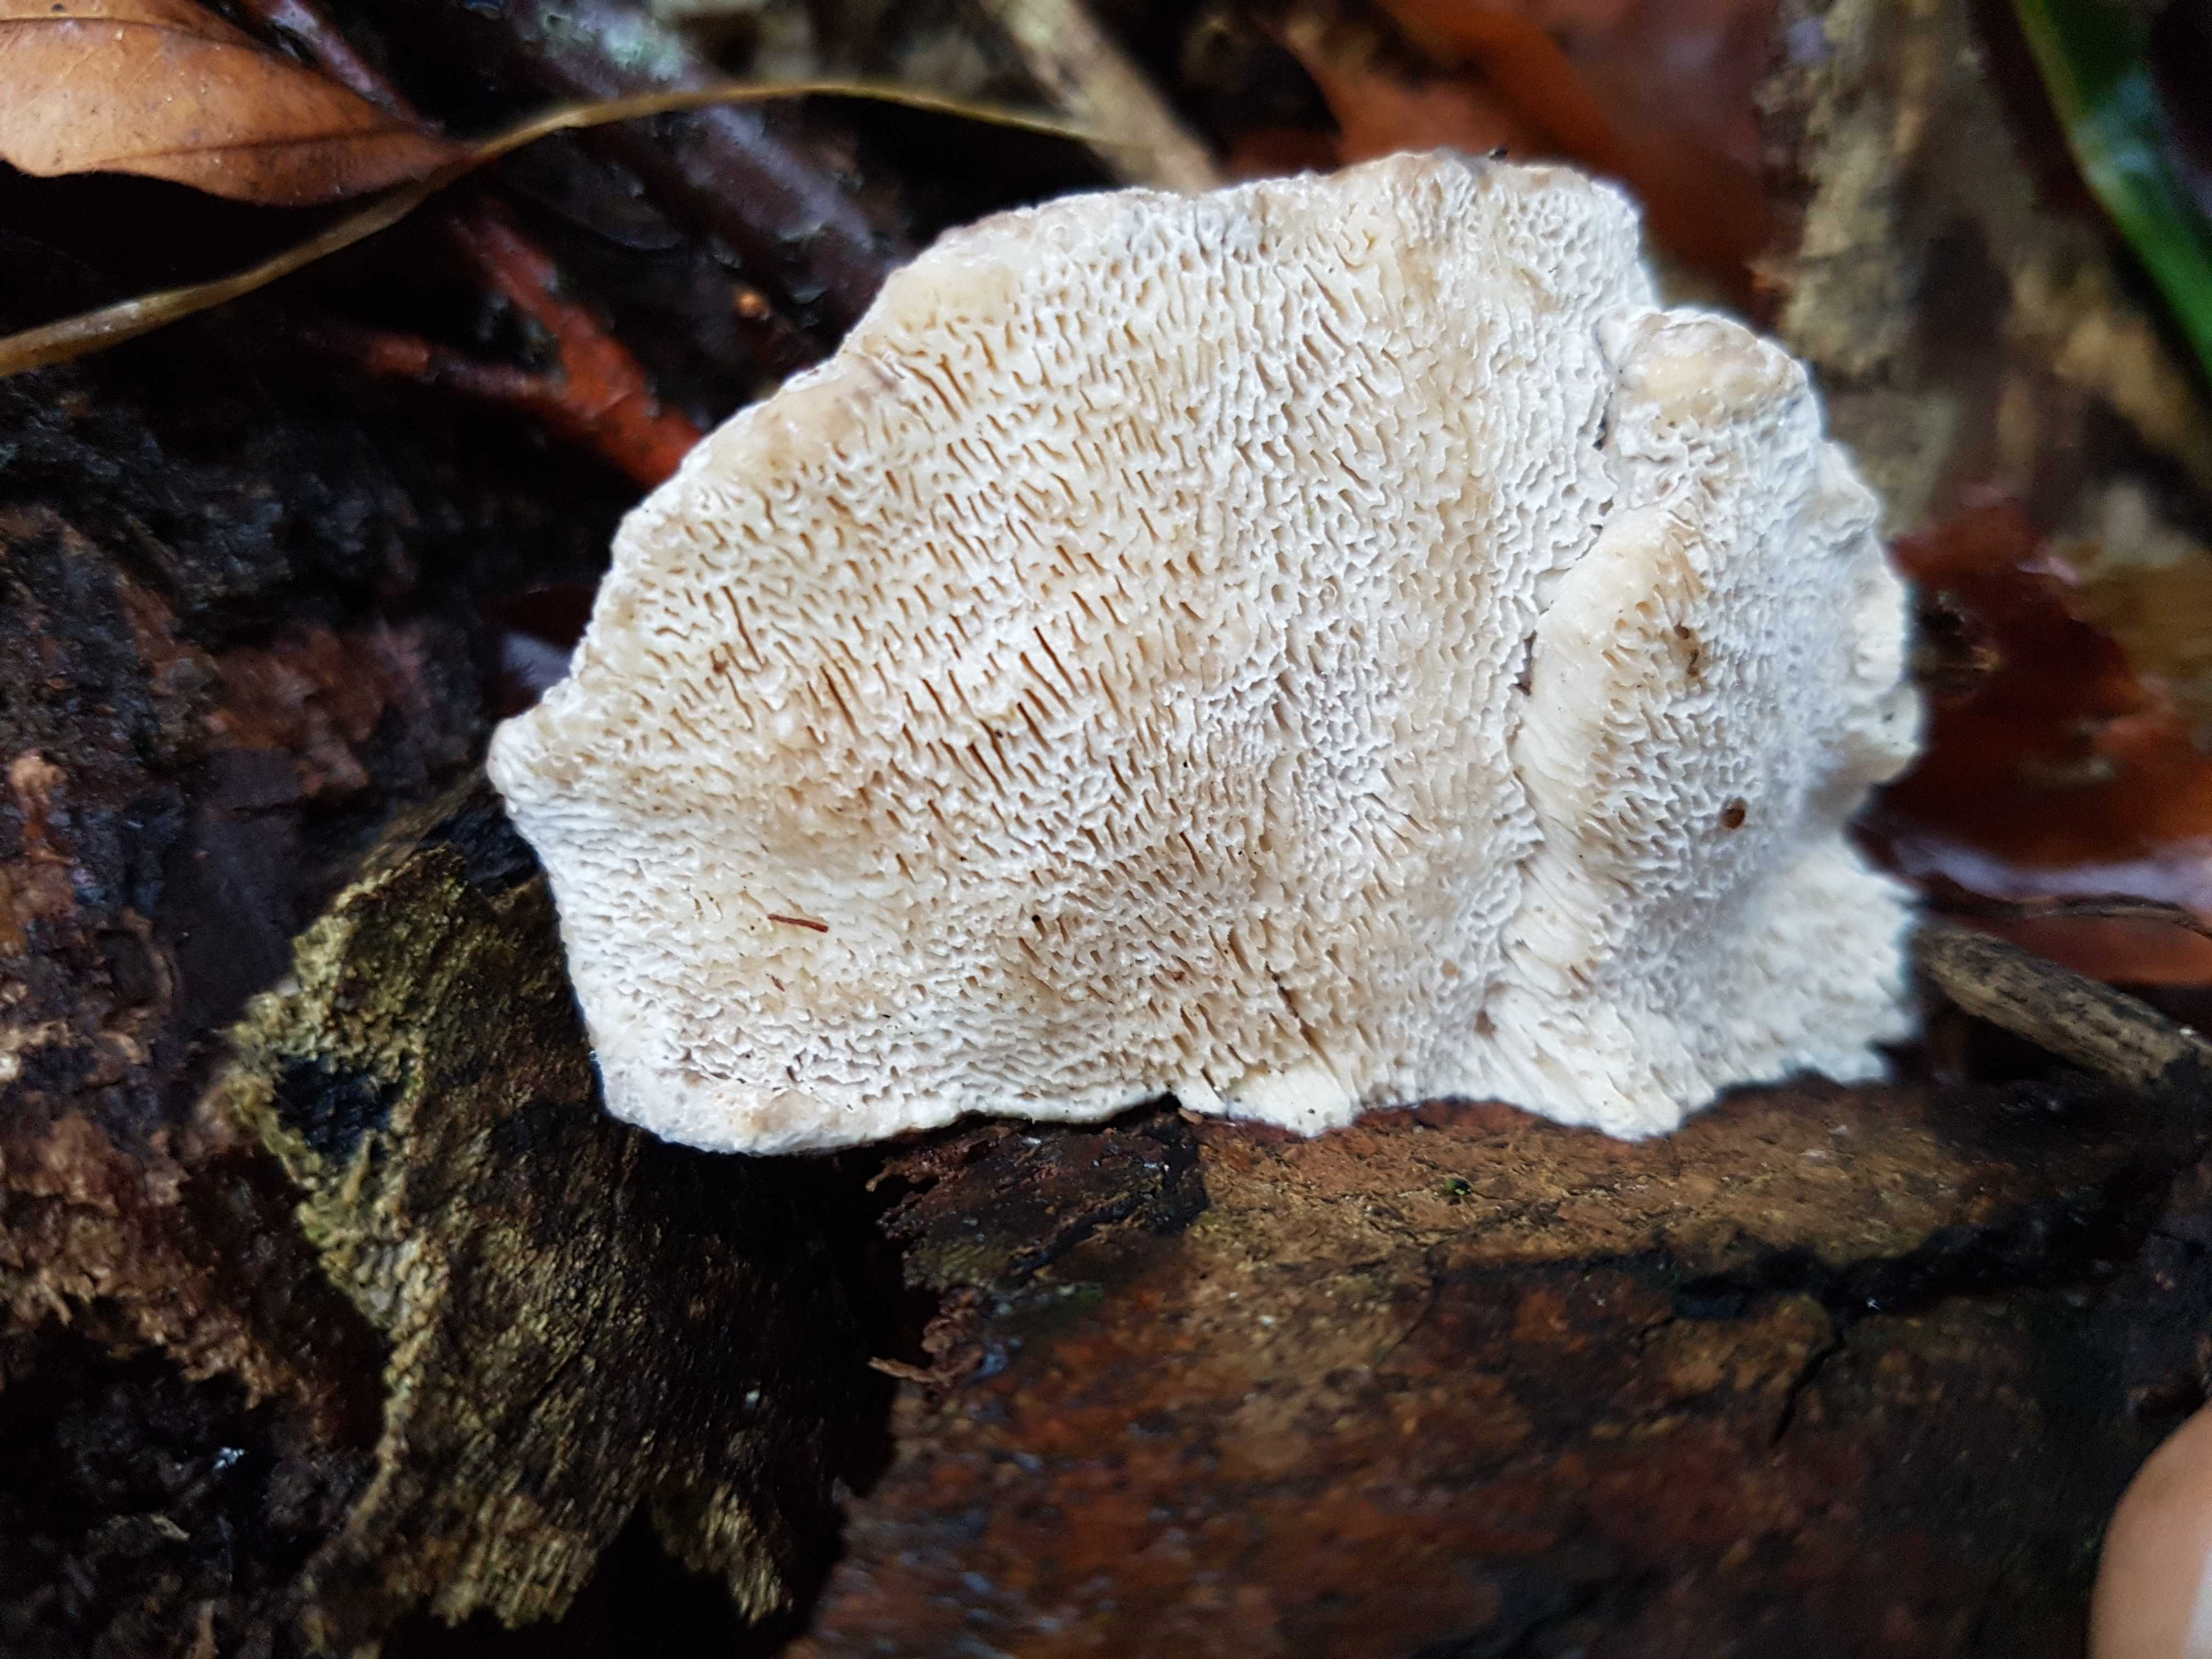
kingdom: Fungi
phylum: Basidiomycota
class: Agaricomycetes
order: Polyporales
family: Polyporaceae
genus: Trametes
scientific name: Trametes gibbosa
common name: puklet læderporesvamp
